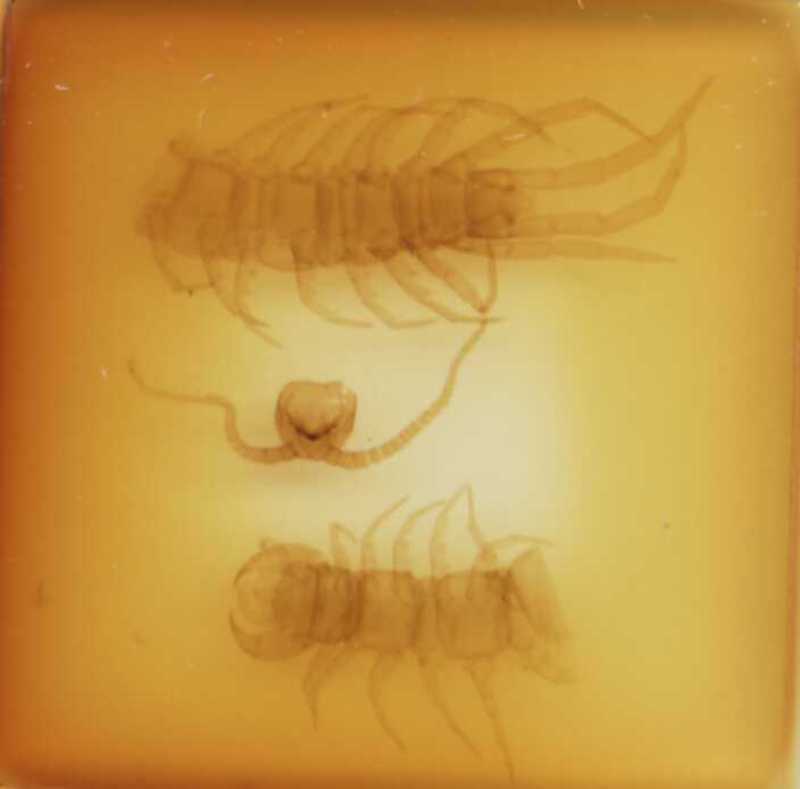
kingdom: Animalia
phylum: Arthropoda
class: Chilopoda
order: Lithobiomorpha
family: Lithobiidae
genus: Lithobius
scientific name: Lithobius erythrocephalus
